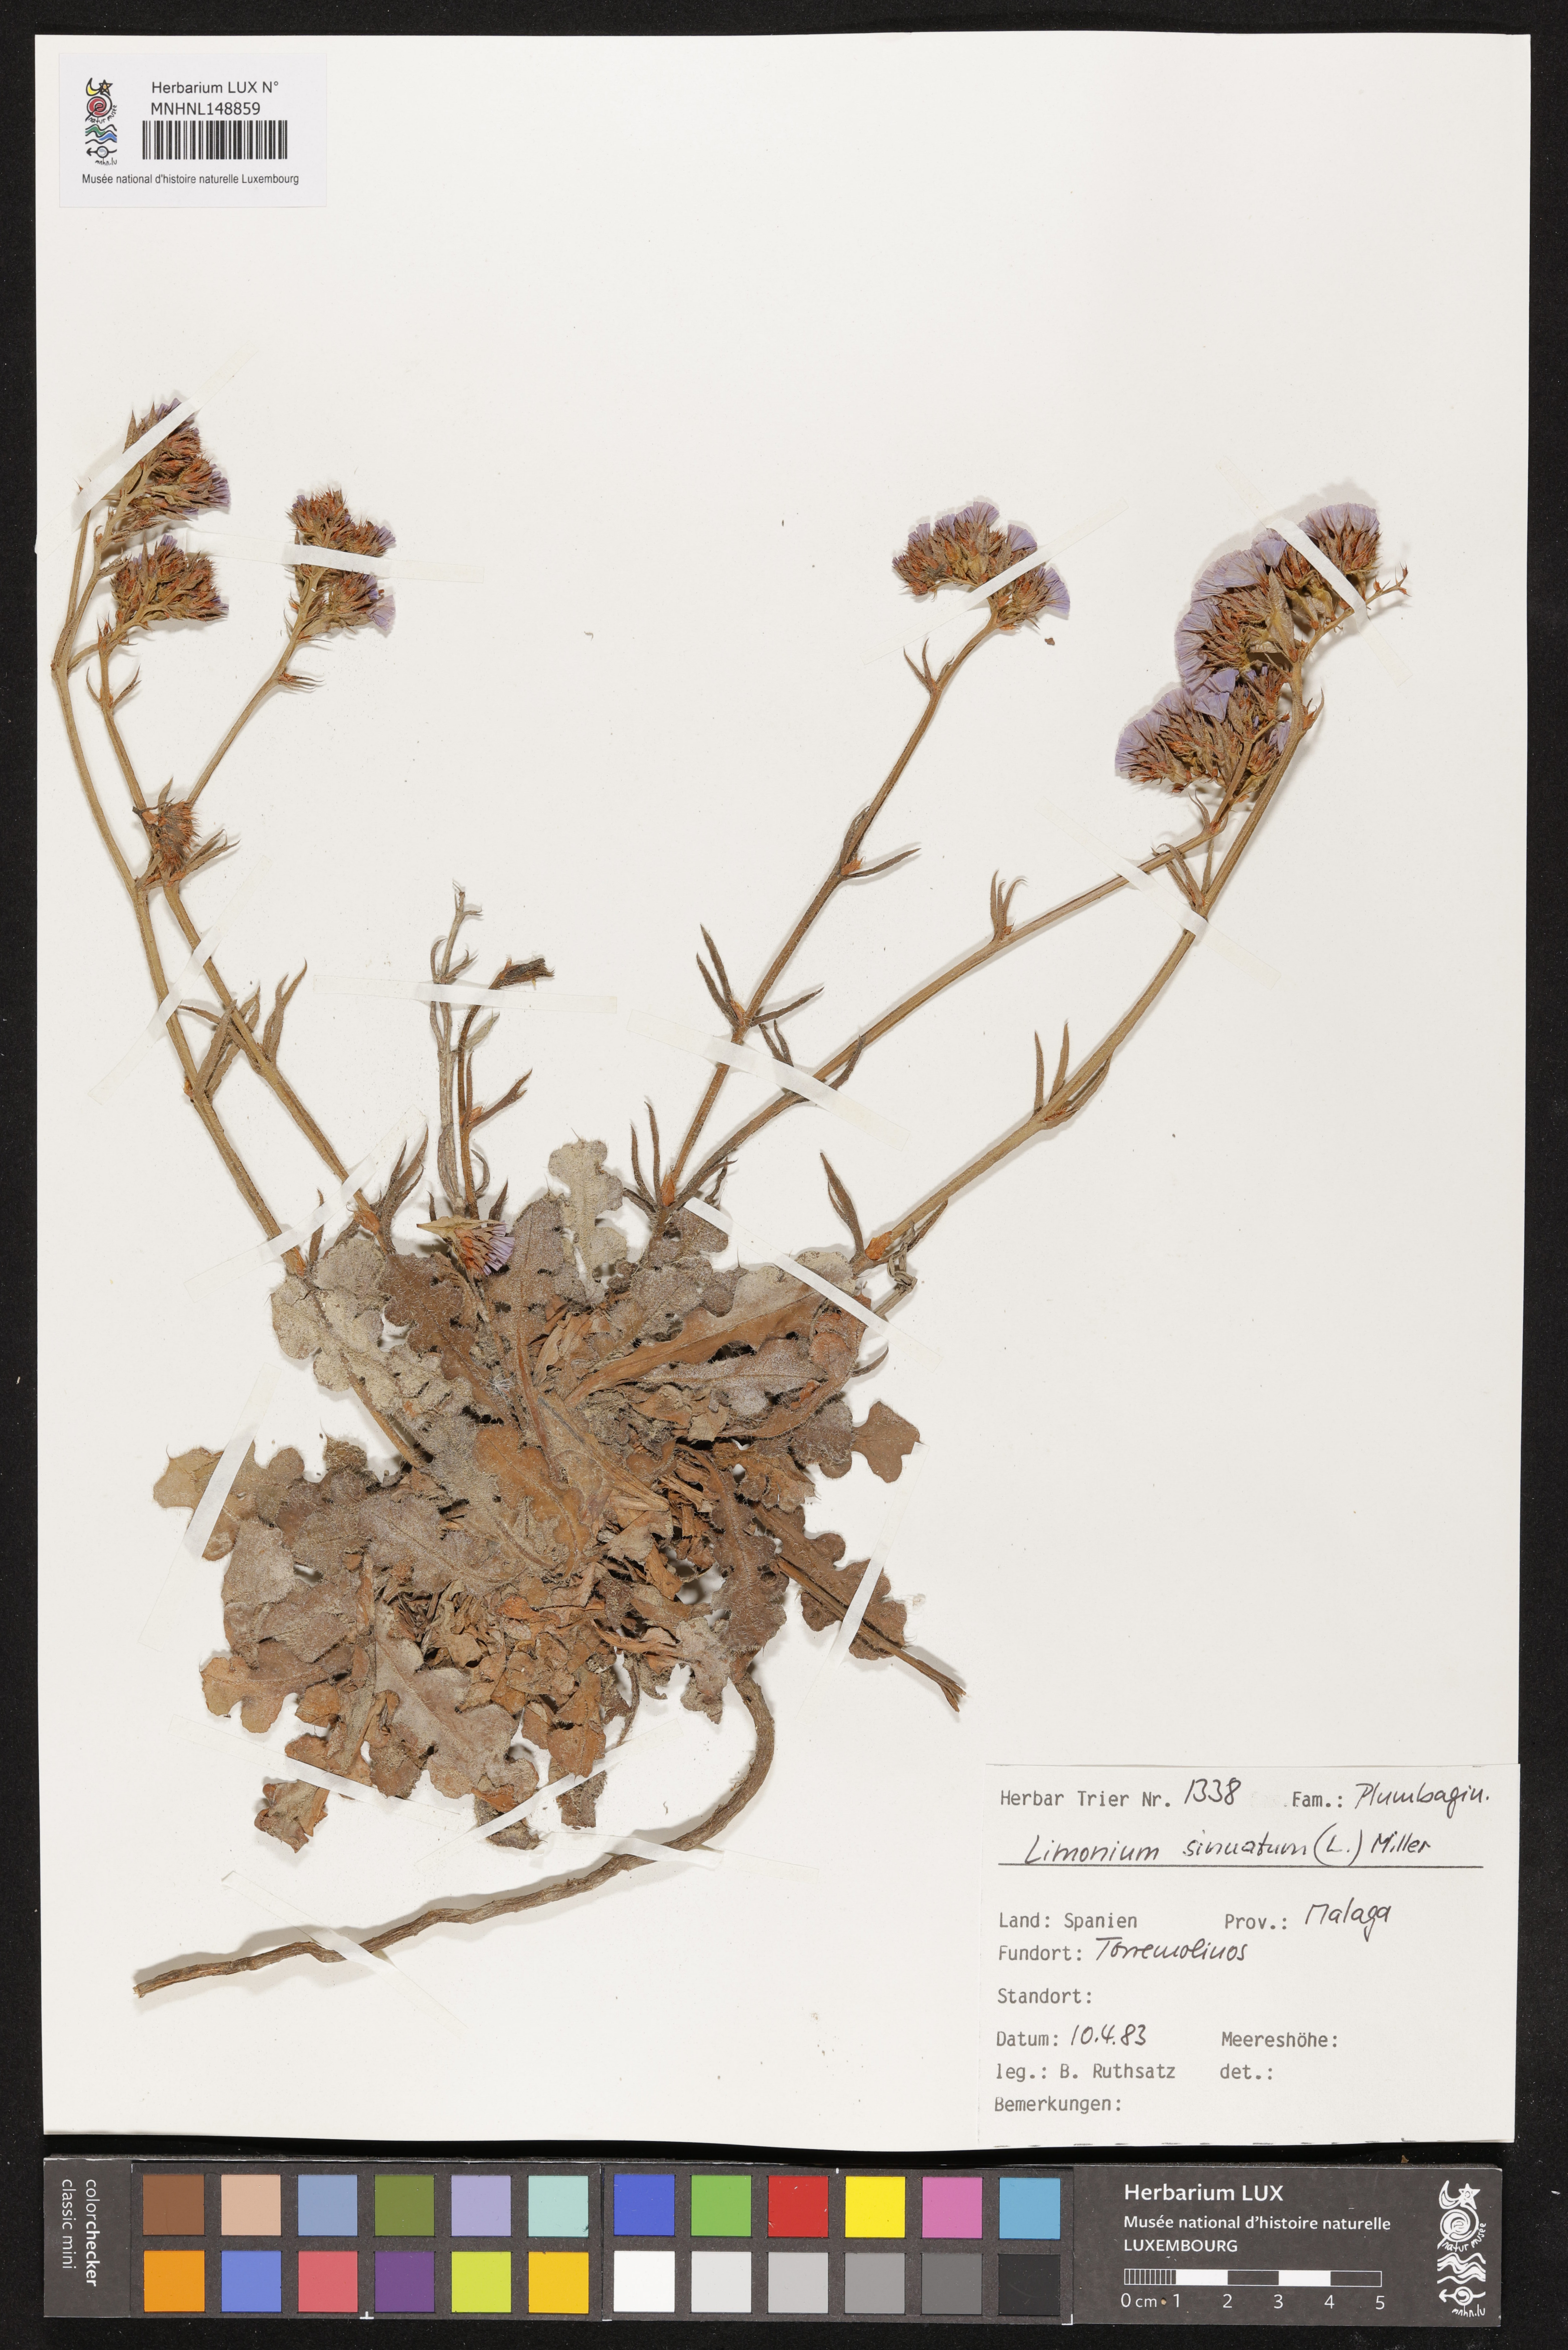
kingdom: Plantae
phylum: Tracheophyta
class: Magnoliopsida
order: Caryophyllales
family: Plumbaginaceae
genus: Limonium
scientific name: Limonium sinuatum
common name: Statice
